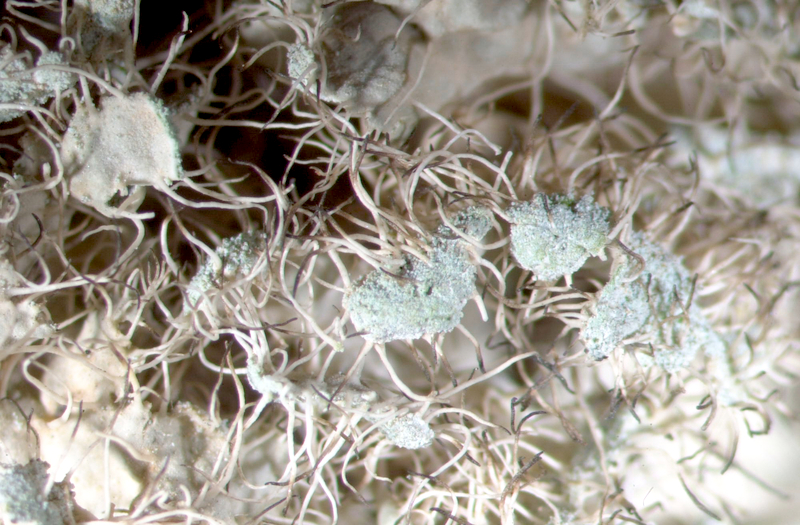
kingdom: Fungi
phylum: Ascomycota
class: Lecanoromycetes
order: Caliciales
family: Physciaceae
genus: Physcia
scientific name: Physcia
